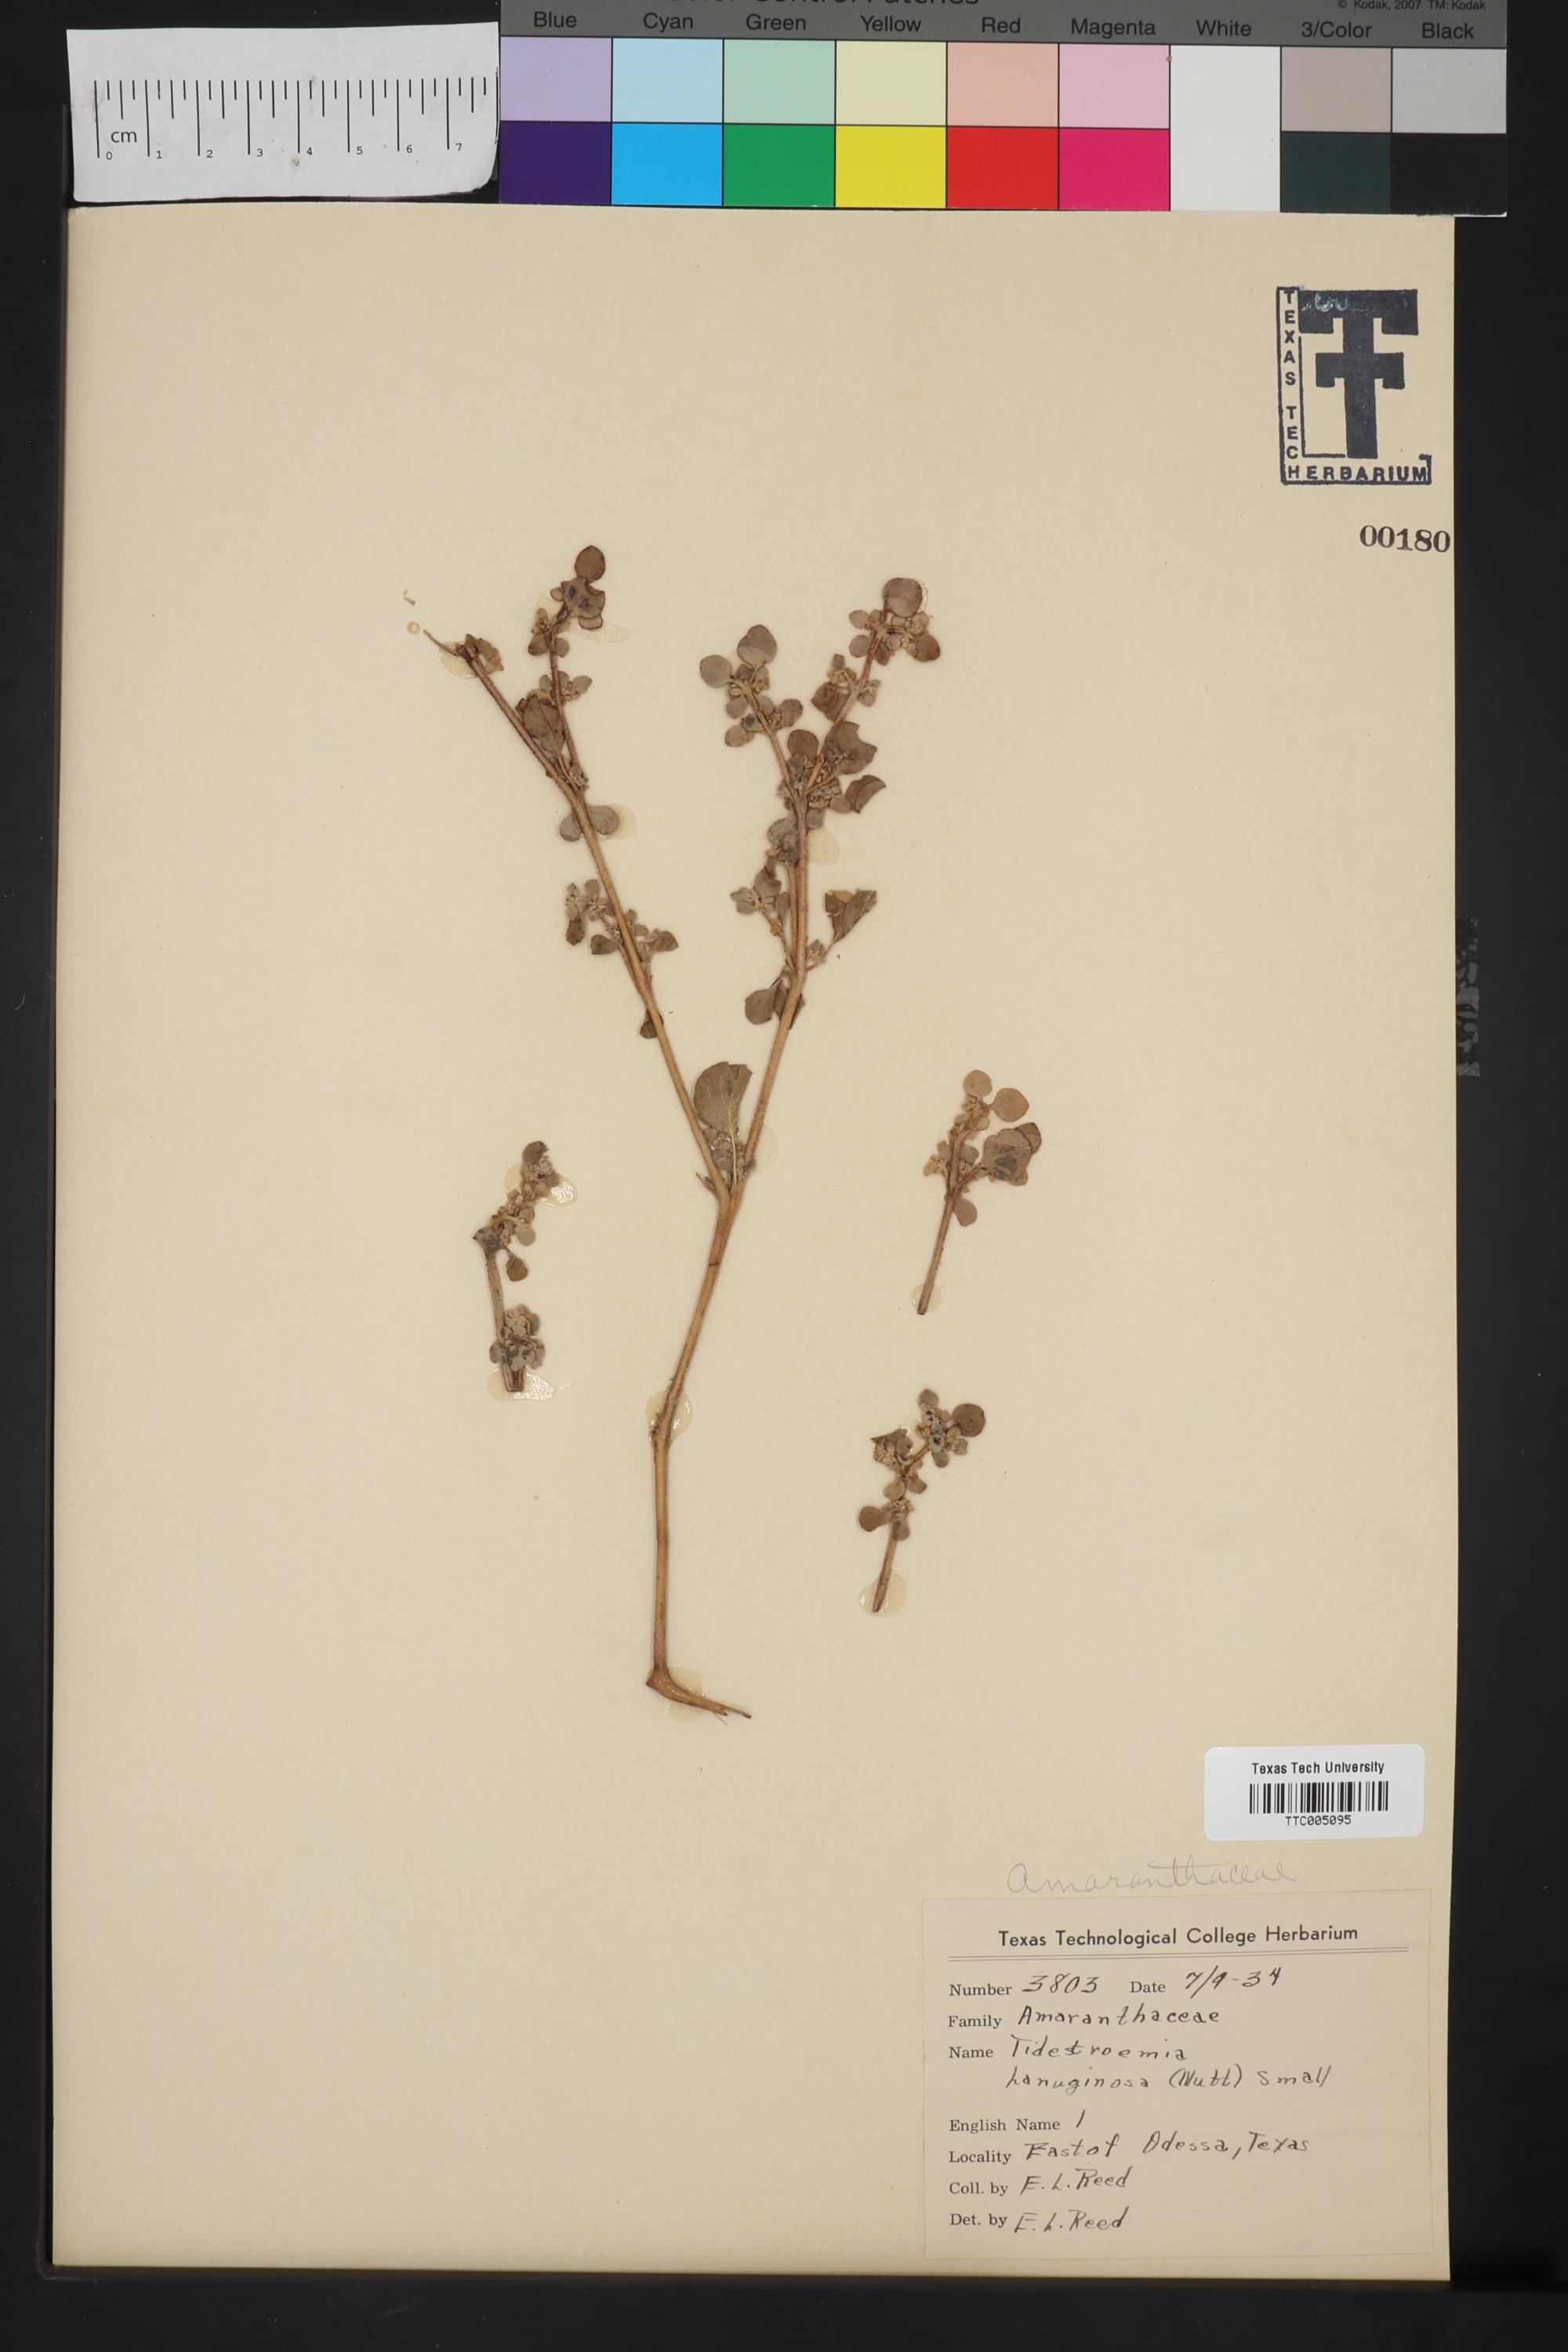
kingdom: Plantae
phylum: Tracheophyta
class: Magnoliopsida
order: Caryophyllales
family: Amaranthaceae
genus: Tidestromia
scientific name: Tidestromia lanuginosa
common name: Woolly tidestromia
